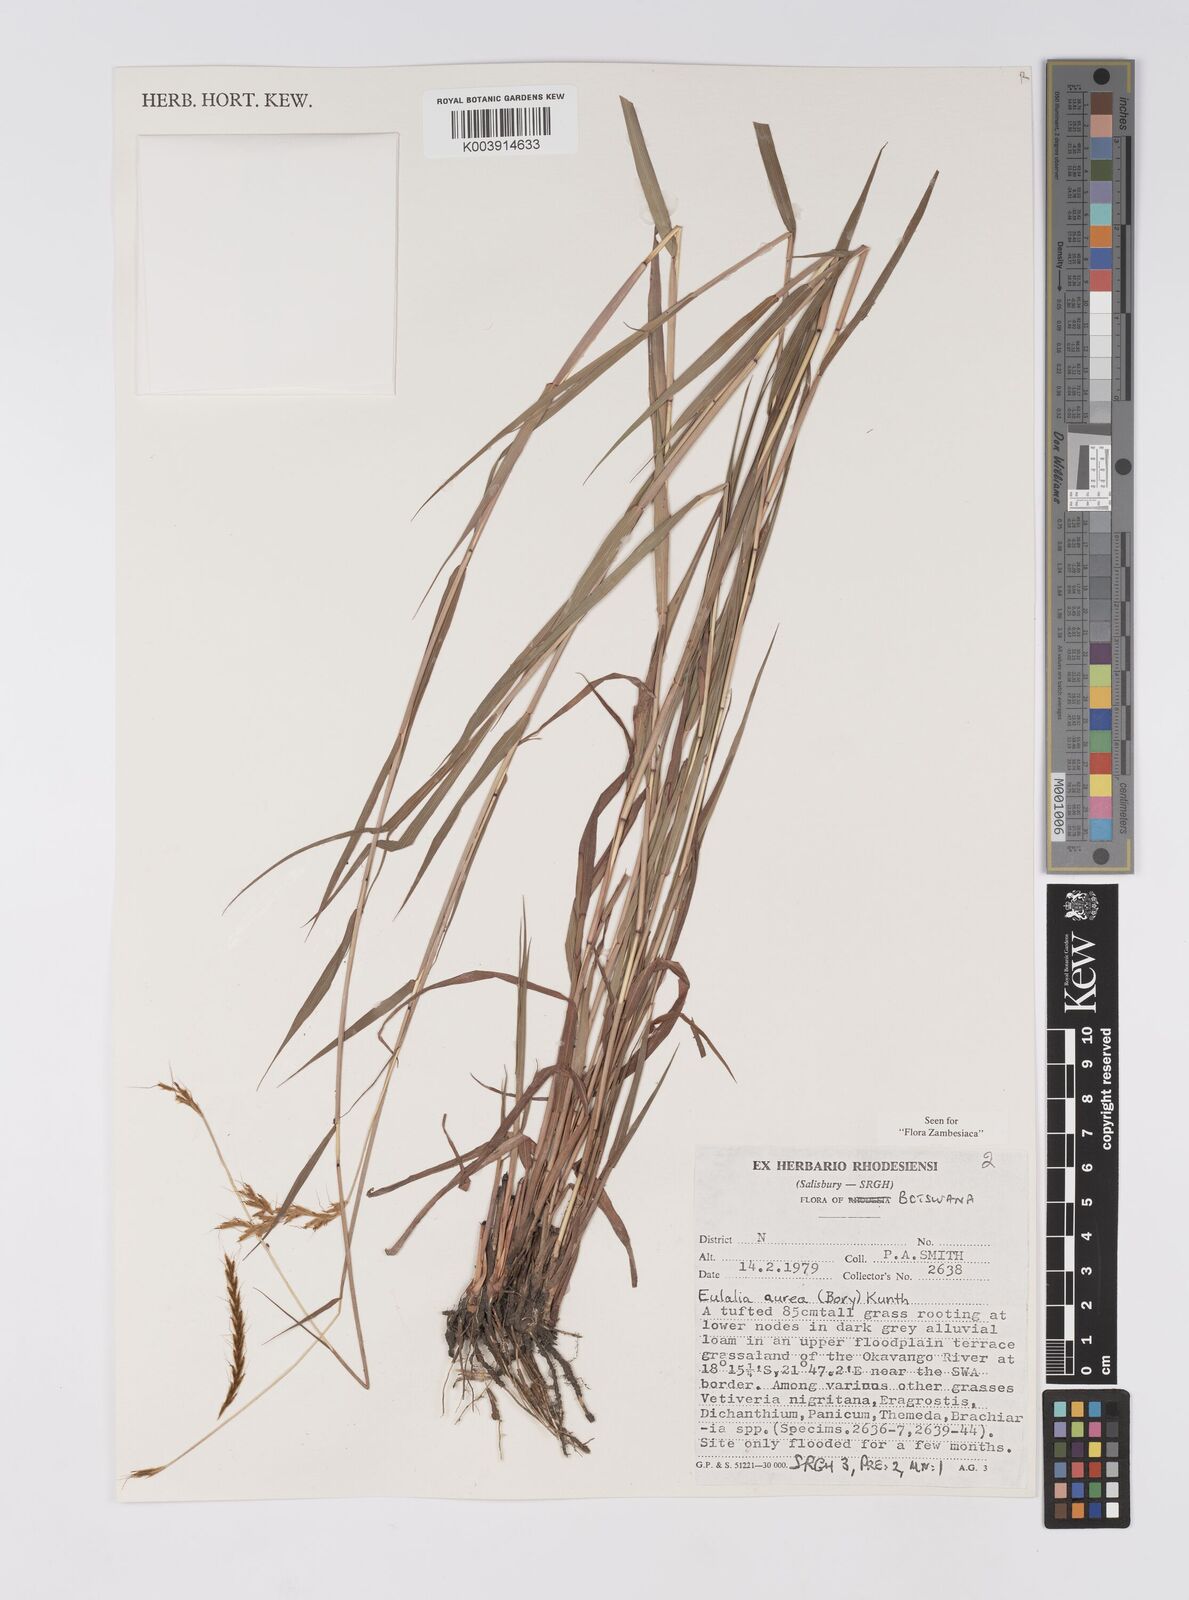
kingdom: Plantae
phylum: Tracheophyta
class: Liliopsida
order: Poales
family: Poaceae
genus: Eulalia
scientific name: Eulalia aurea
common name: Silky browntop
